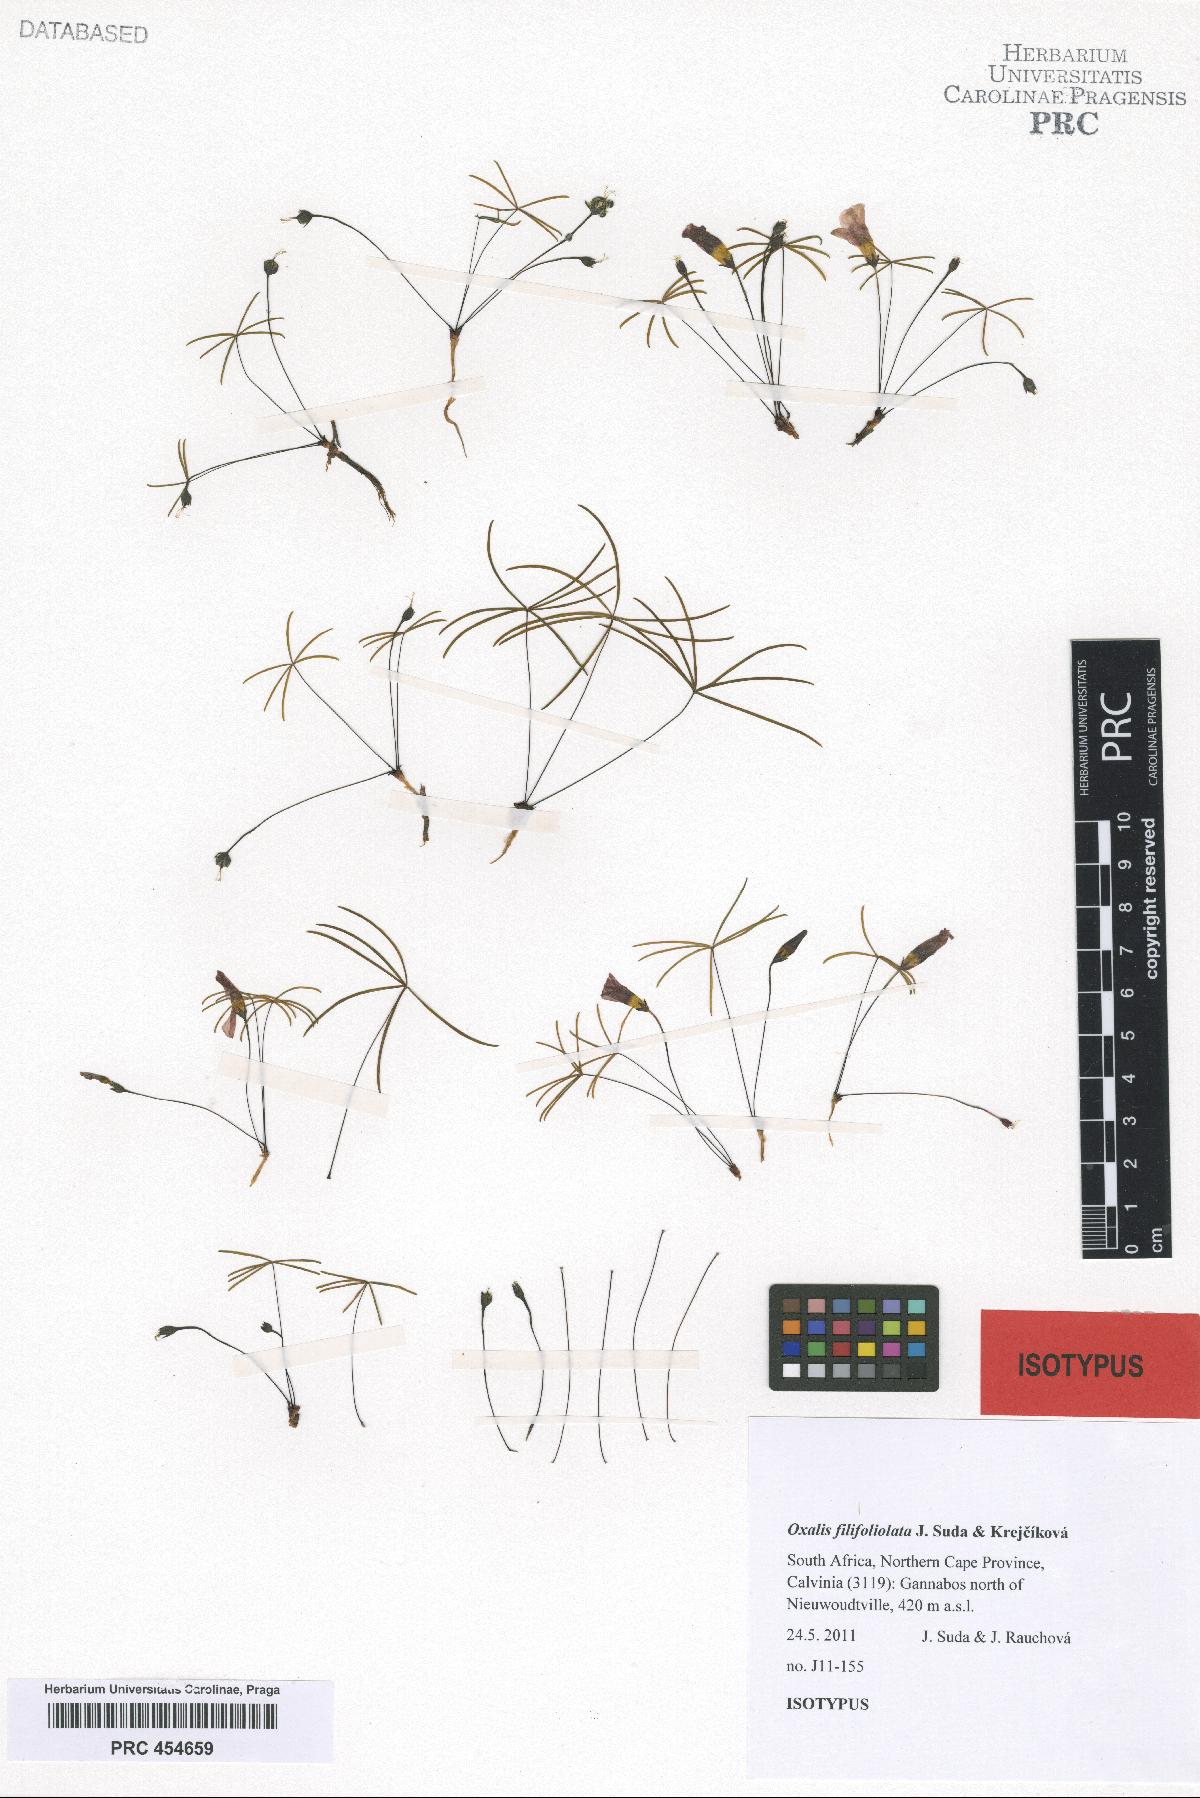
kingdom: Plantae
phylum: Tracheophyta
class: Magnoliopsida
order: Oxalidales
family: Oxalidaceae
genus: Oxalis
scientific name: Oxalis filifoliolata
